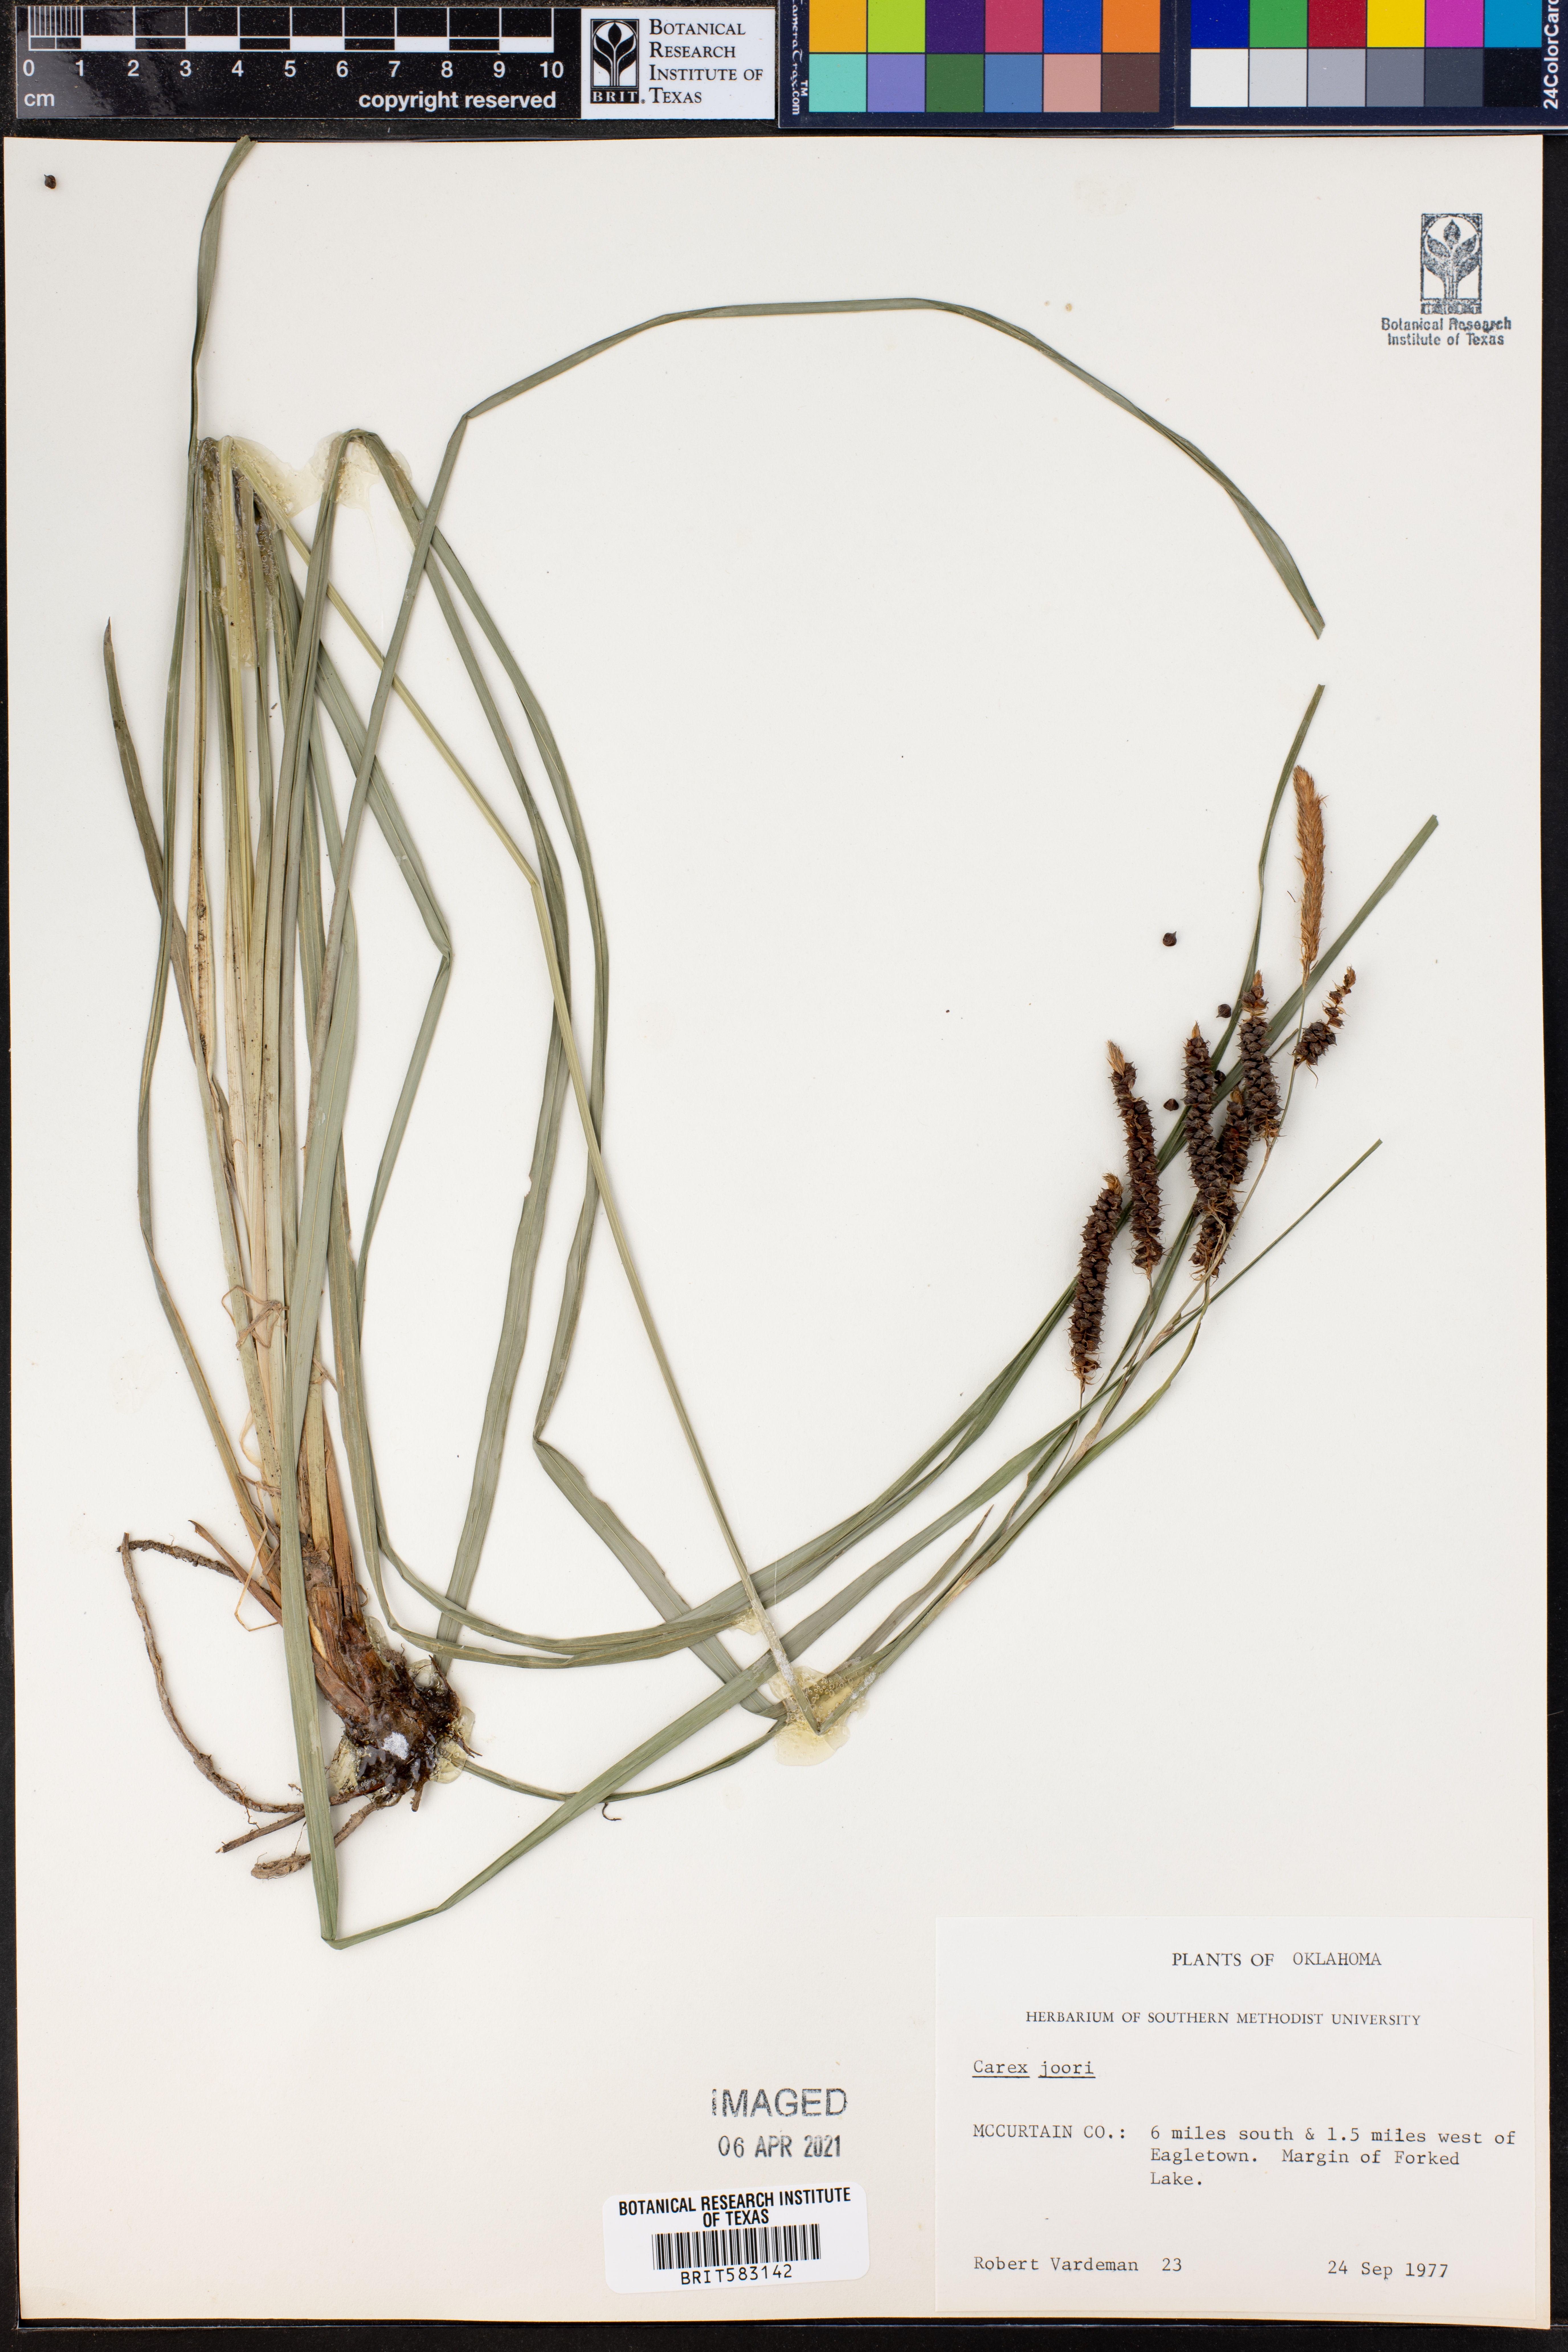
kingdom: Plantae
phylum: Tracheophyta
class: Liliopsida
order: Poales
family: Cyperaceae
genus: Carex
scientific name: Carex joorii
